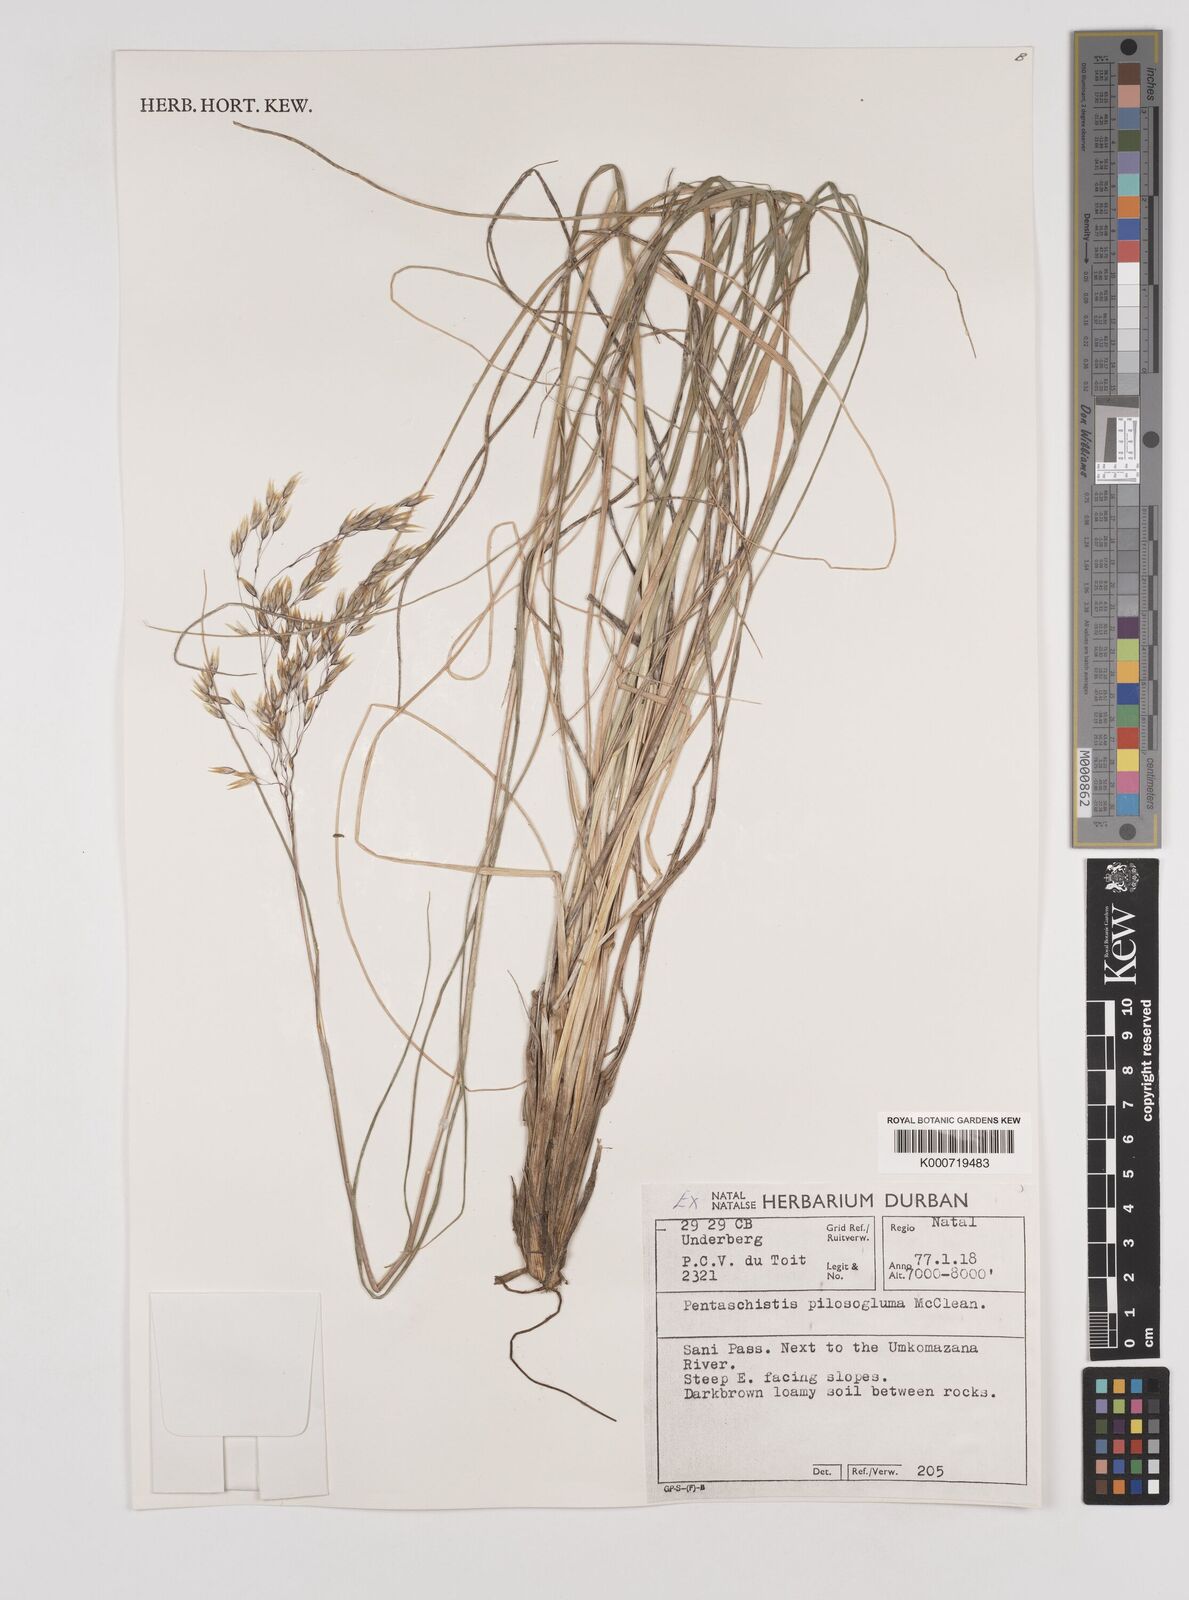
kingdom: Plantae
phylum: Tracheophyta
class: Liliopsida
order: Poales
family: Poaceae
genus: Pentameris
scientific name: Pentameris aurea
